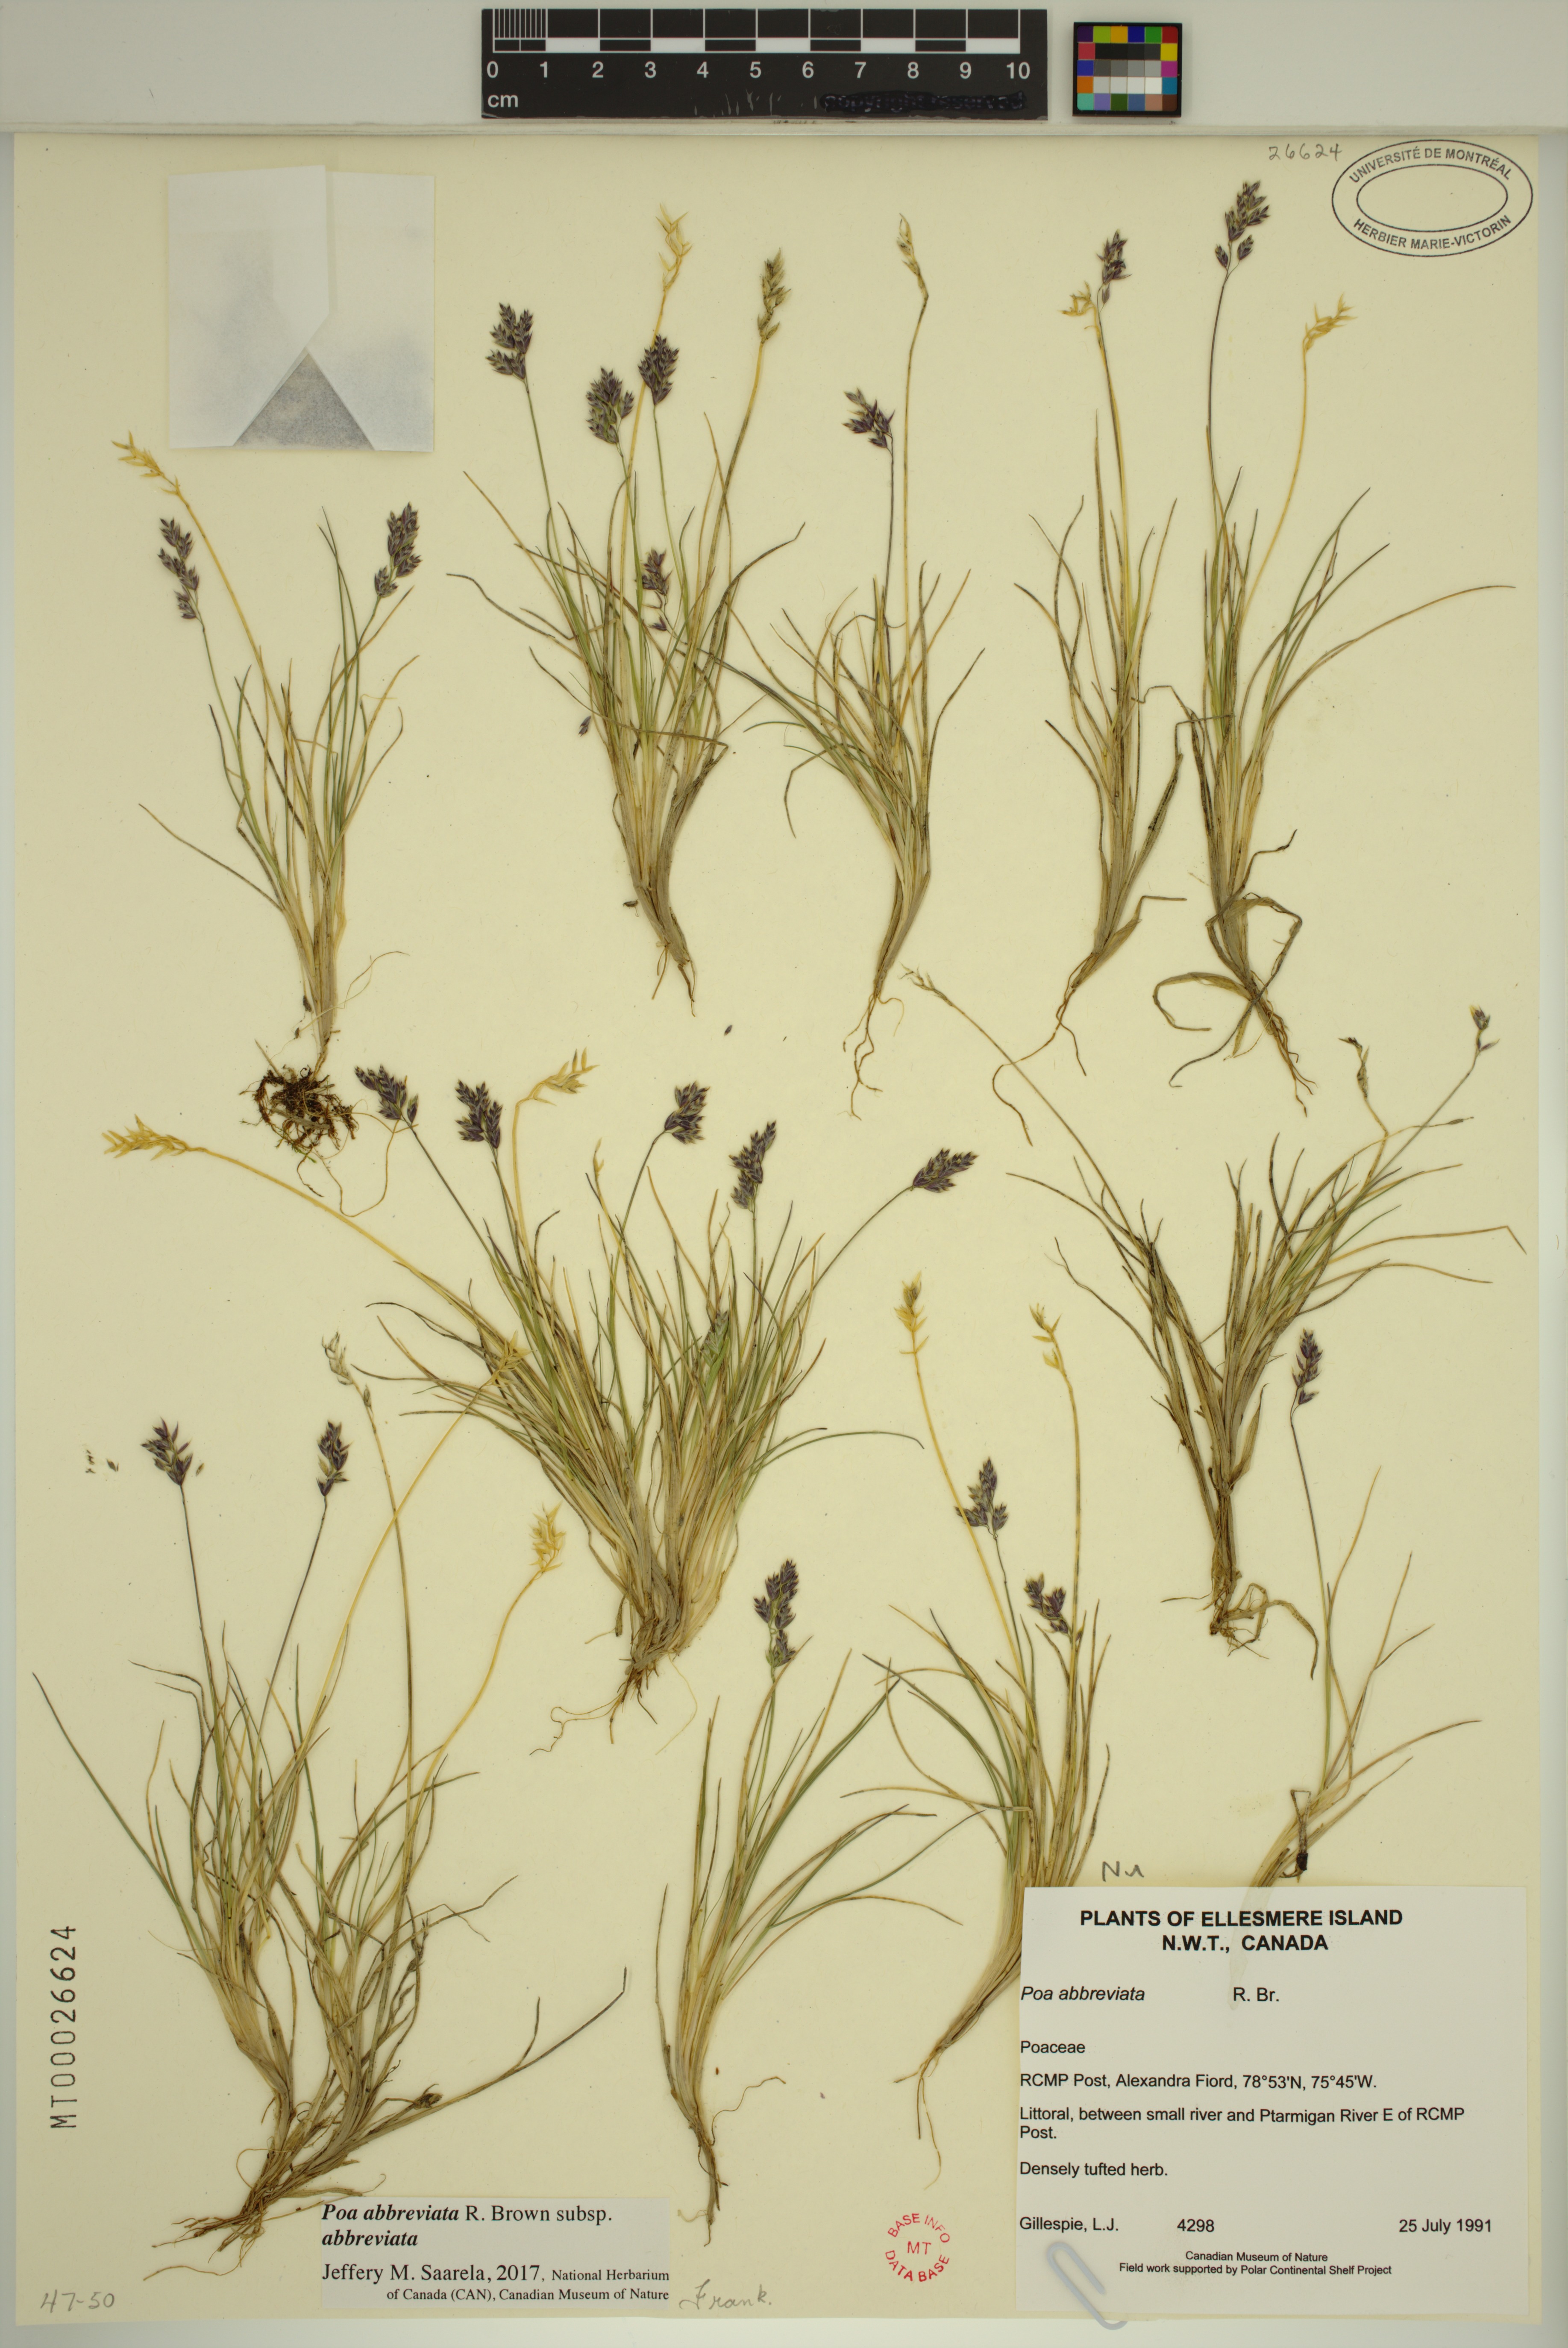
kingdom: Plantae
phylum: Tracheophyta
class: Liliopsida
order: Poales
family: Poaceae
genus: Poa
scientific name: Poa abbreviata
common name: Abbreviated bluegrass
